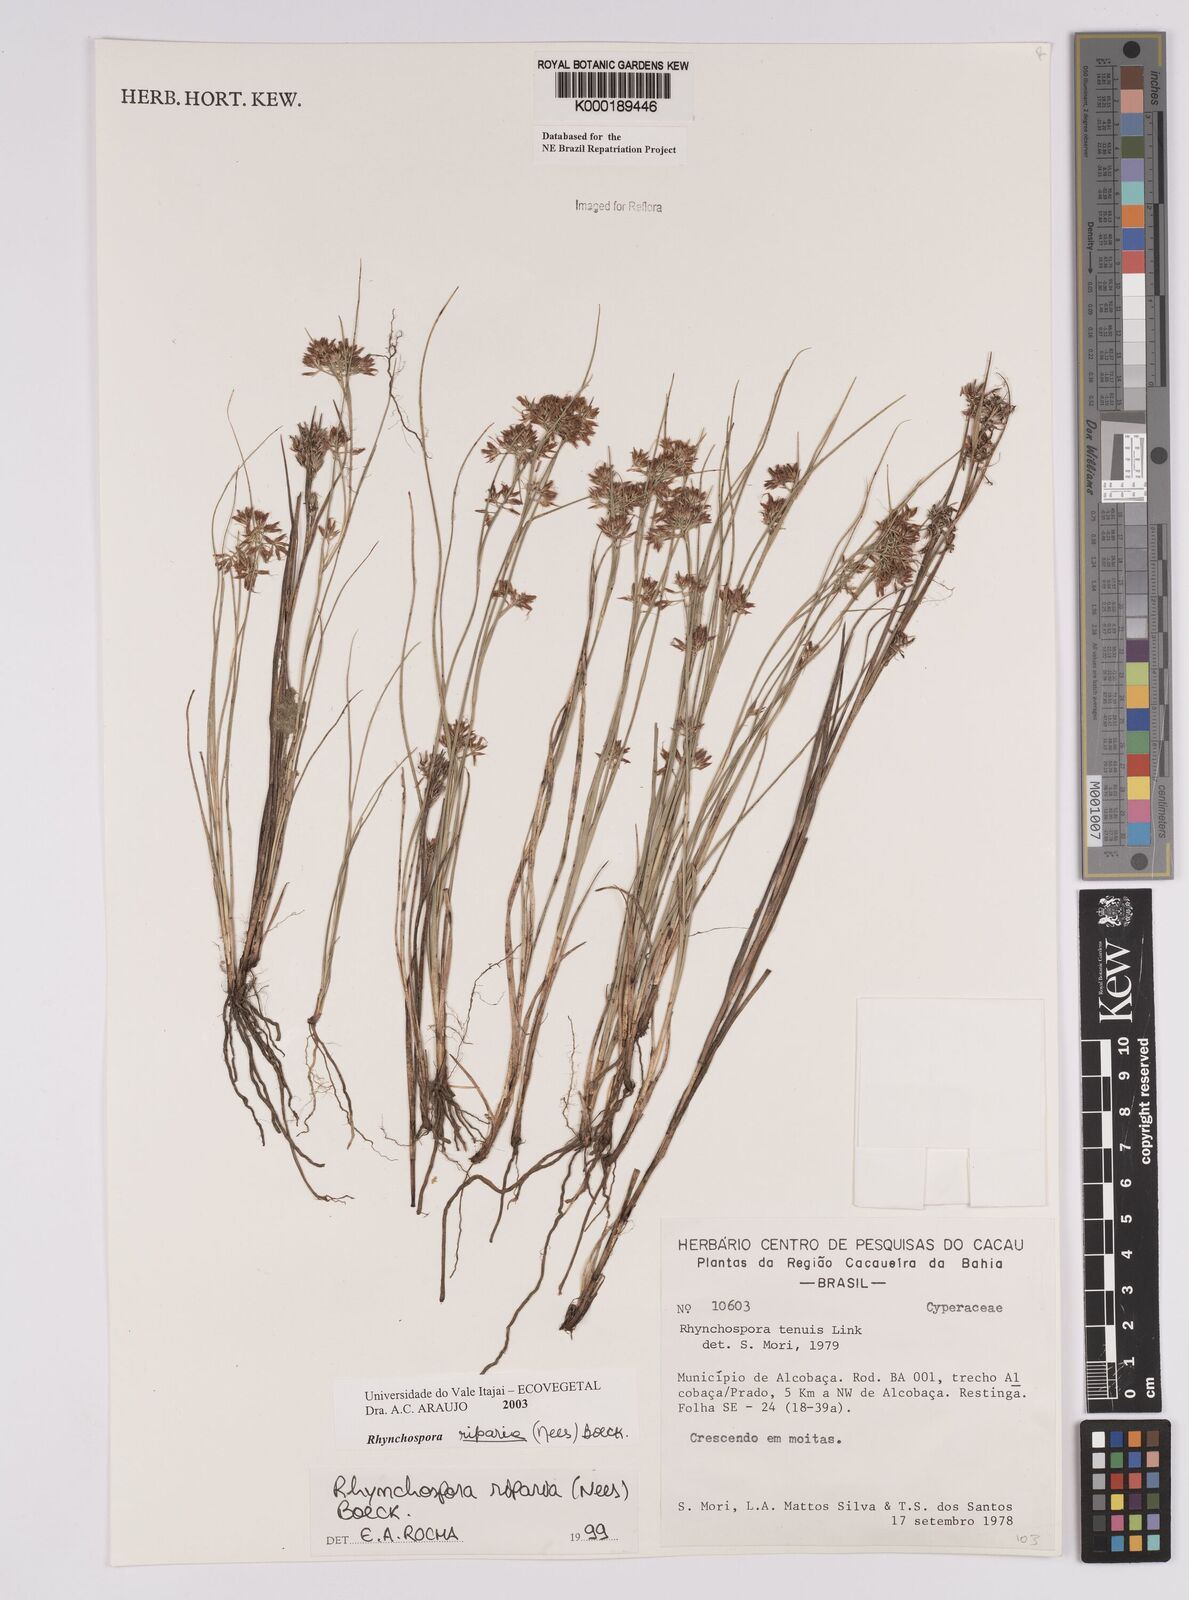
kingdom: Plantae
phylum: Tracheophyta
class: Liliopsida
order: Poales
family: Cyperaceae
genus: Rhynchospora
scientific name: Rhynchospora riparia
